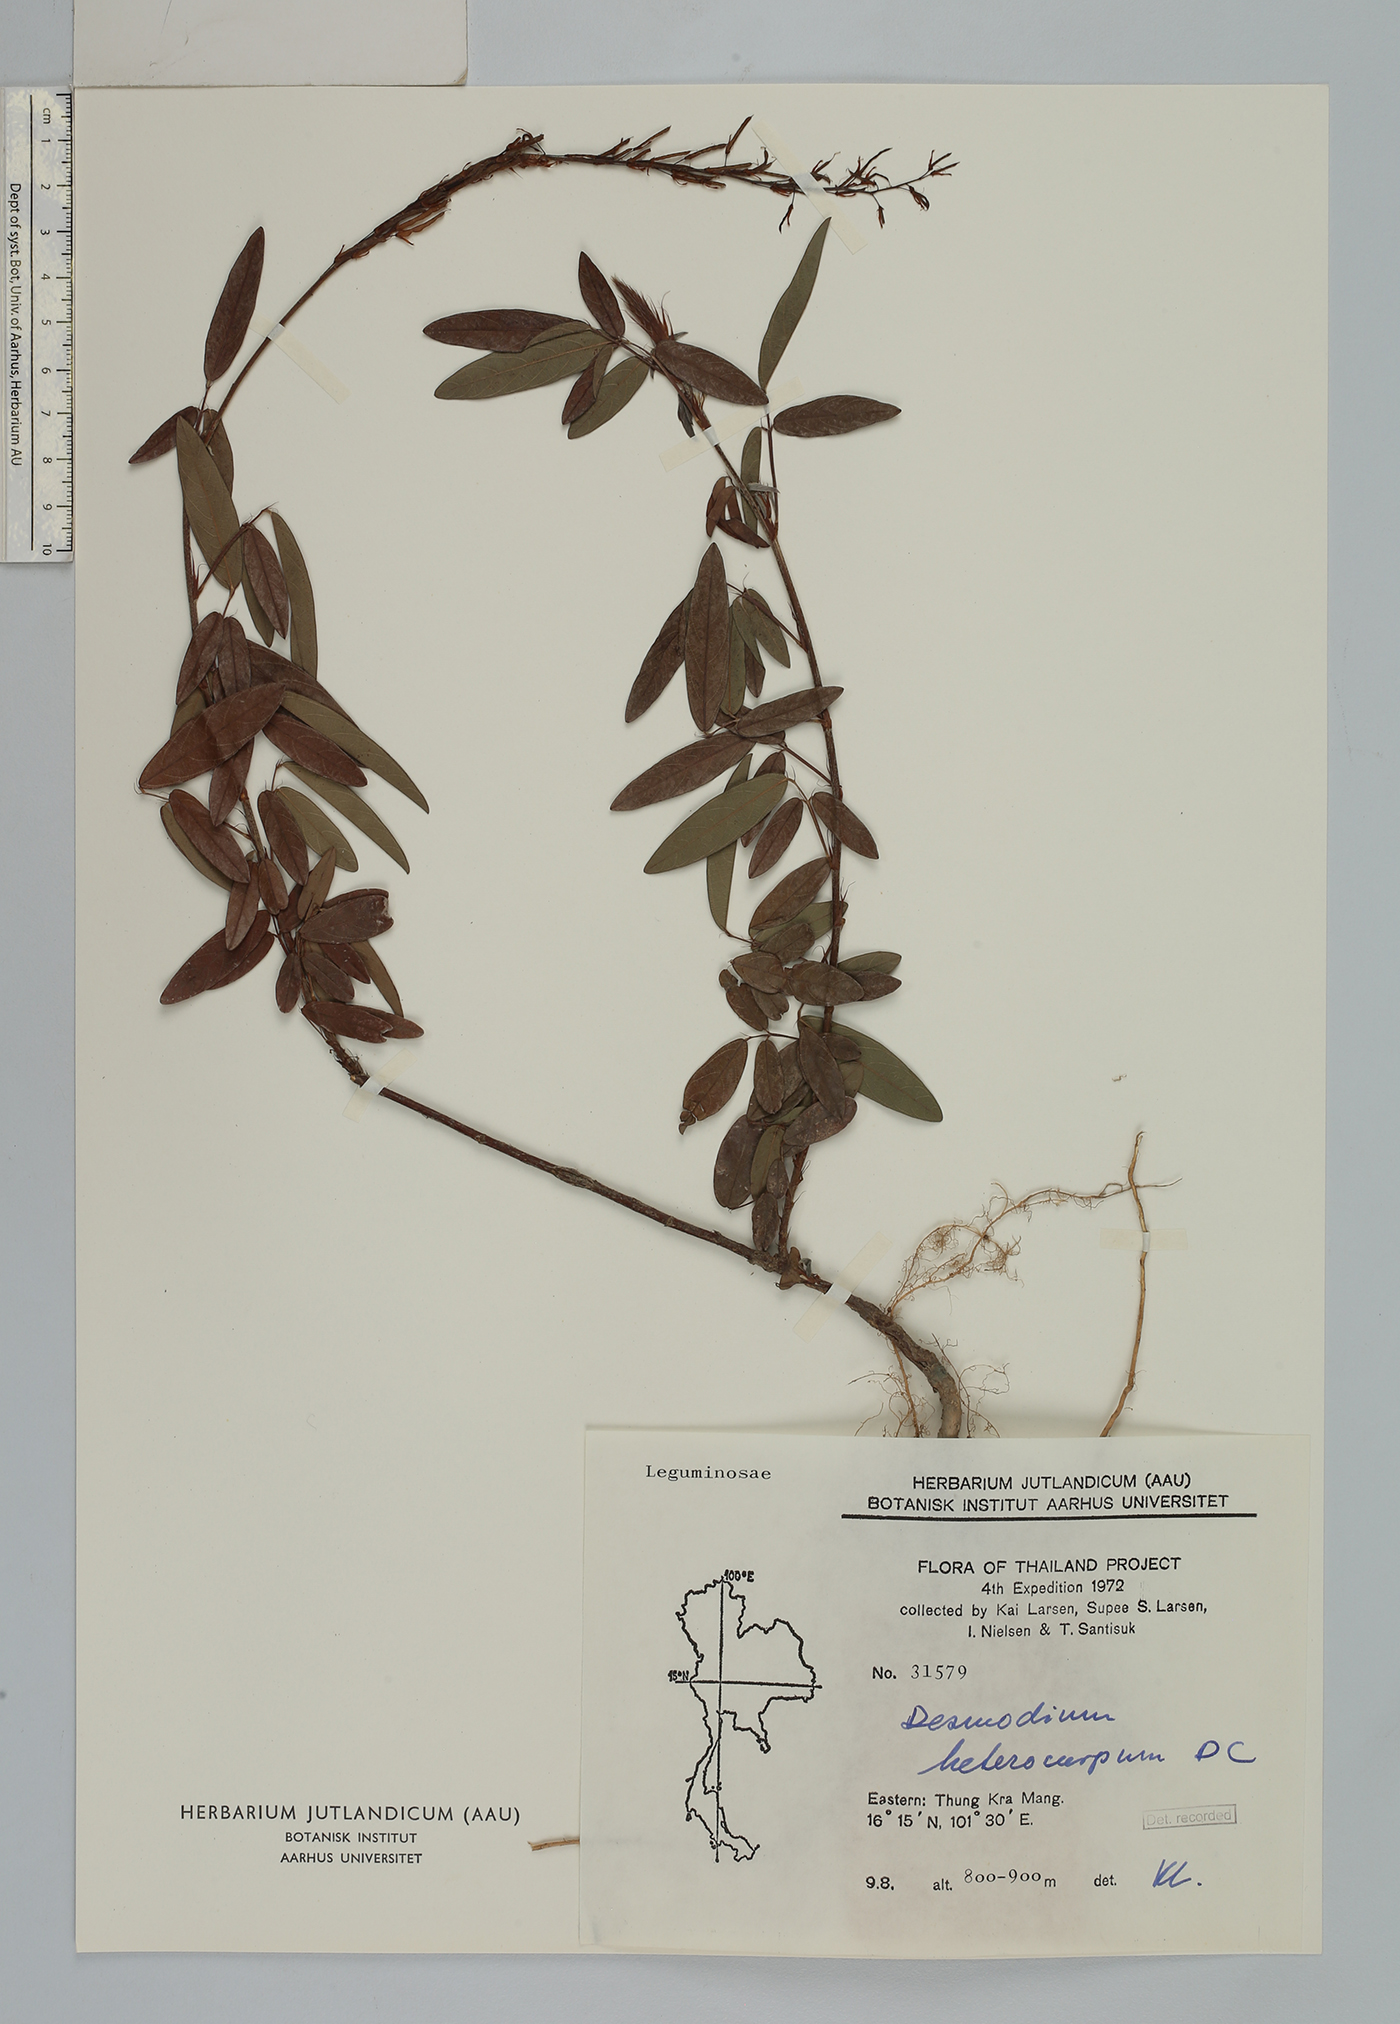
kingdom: Plantae
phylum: Tracheophyta
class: Magnoliopsida
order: Fabales
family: Fabaceae
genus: Grona
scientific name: Grona heterocarpos
